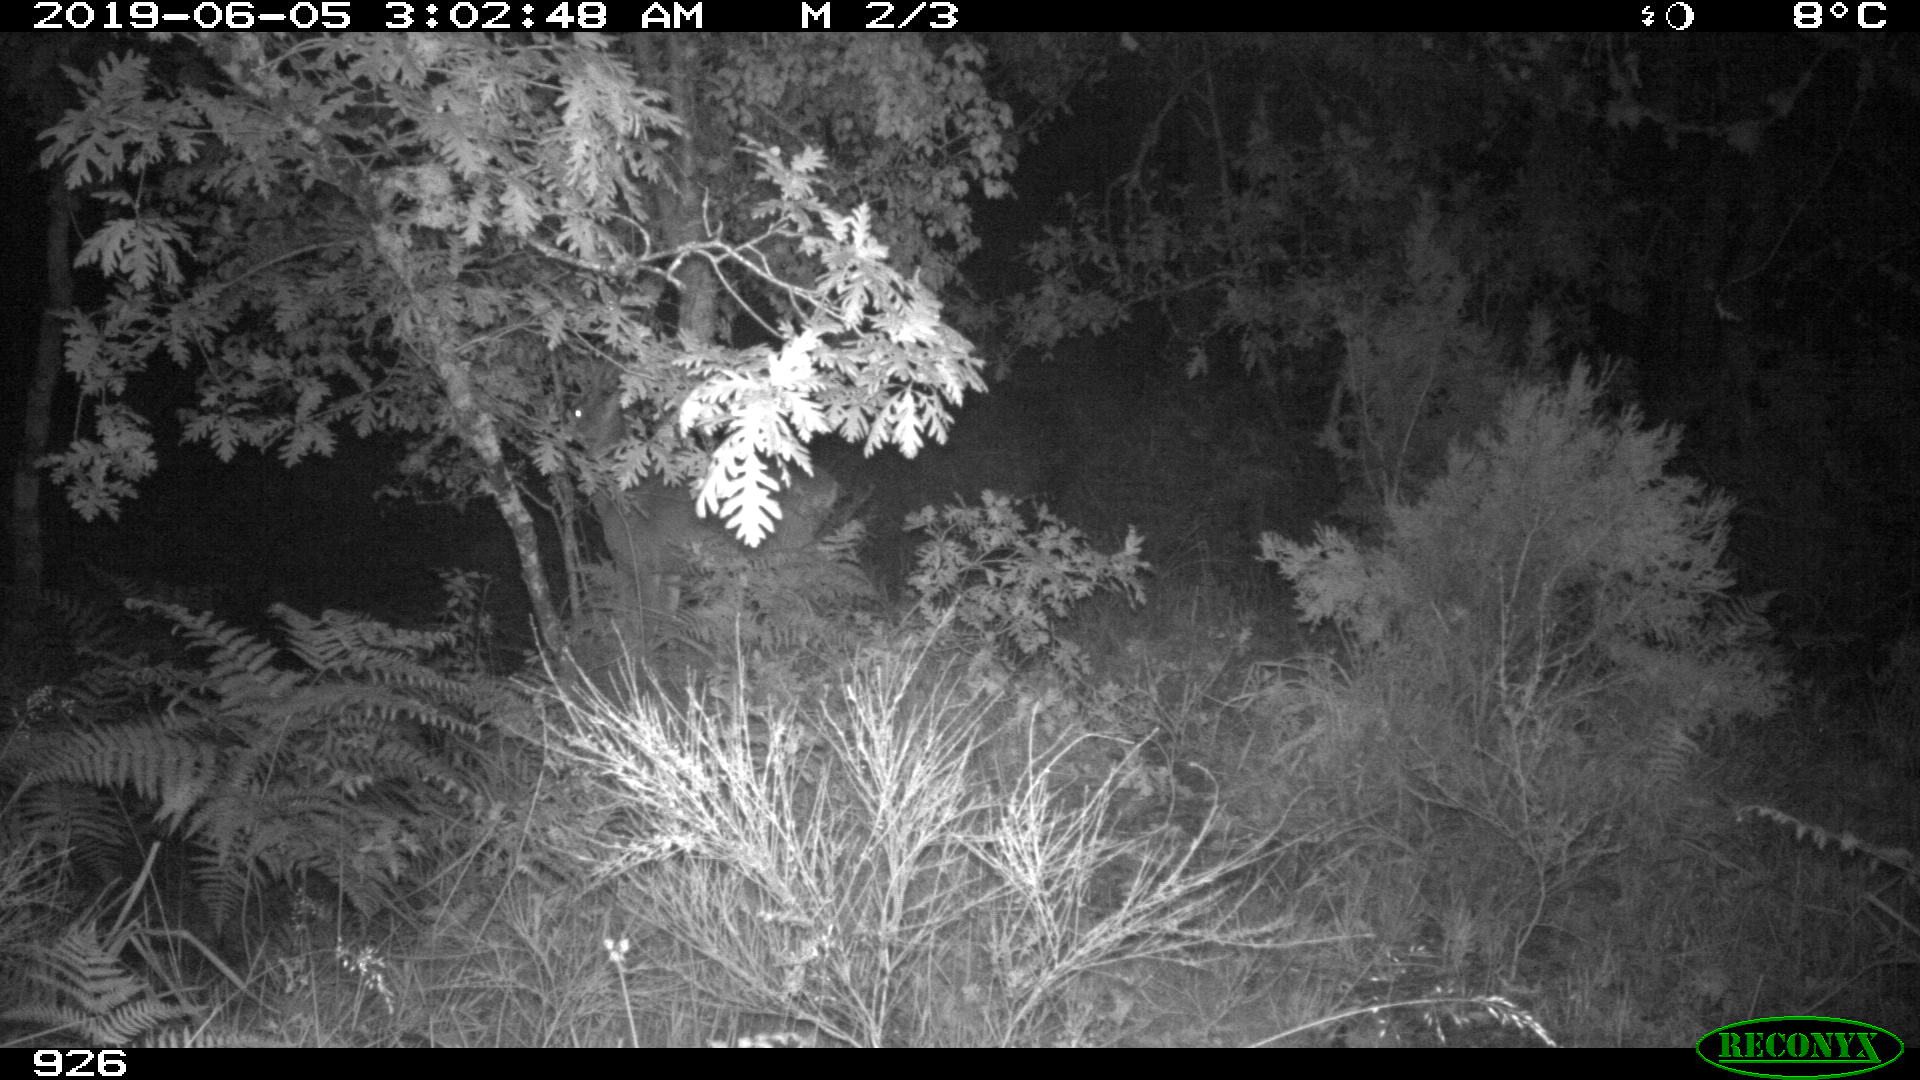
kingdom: Animalia
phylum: Chordata
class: Mammalia
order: Artiodactyla
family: Cervidae
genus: Capreolus
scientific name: Capreolus capreolus
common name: Western roe deer
